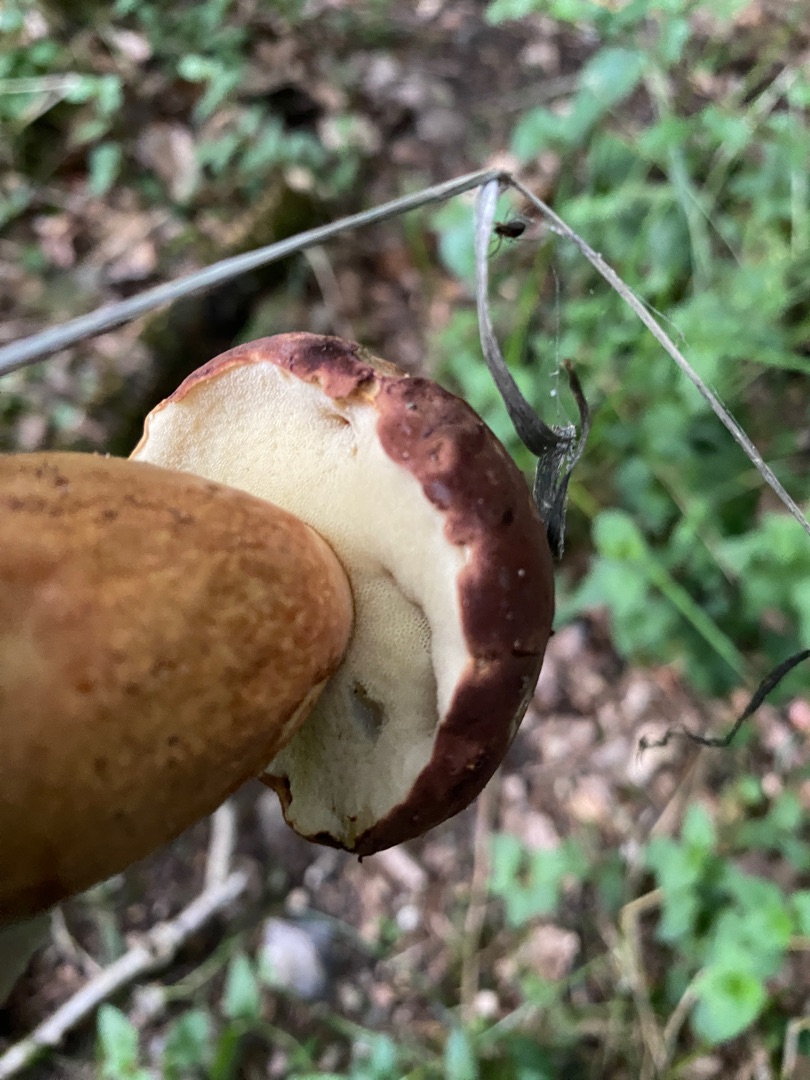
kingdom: Fungi
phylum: Basidiomycota
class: Agaricomycetes
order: Boletales
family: Boletaceae
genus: Boletus
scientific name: Boletus edulis
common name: Spiselig rørhat/karl johan
